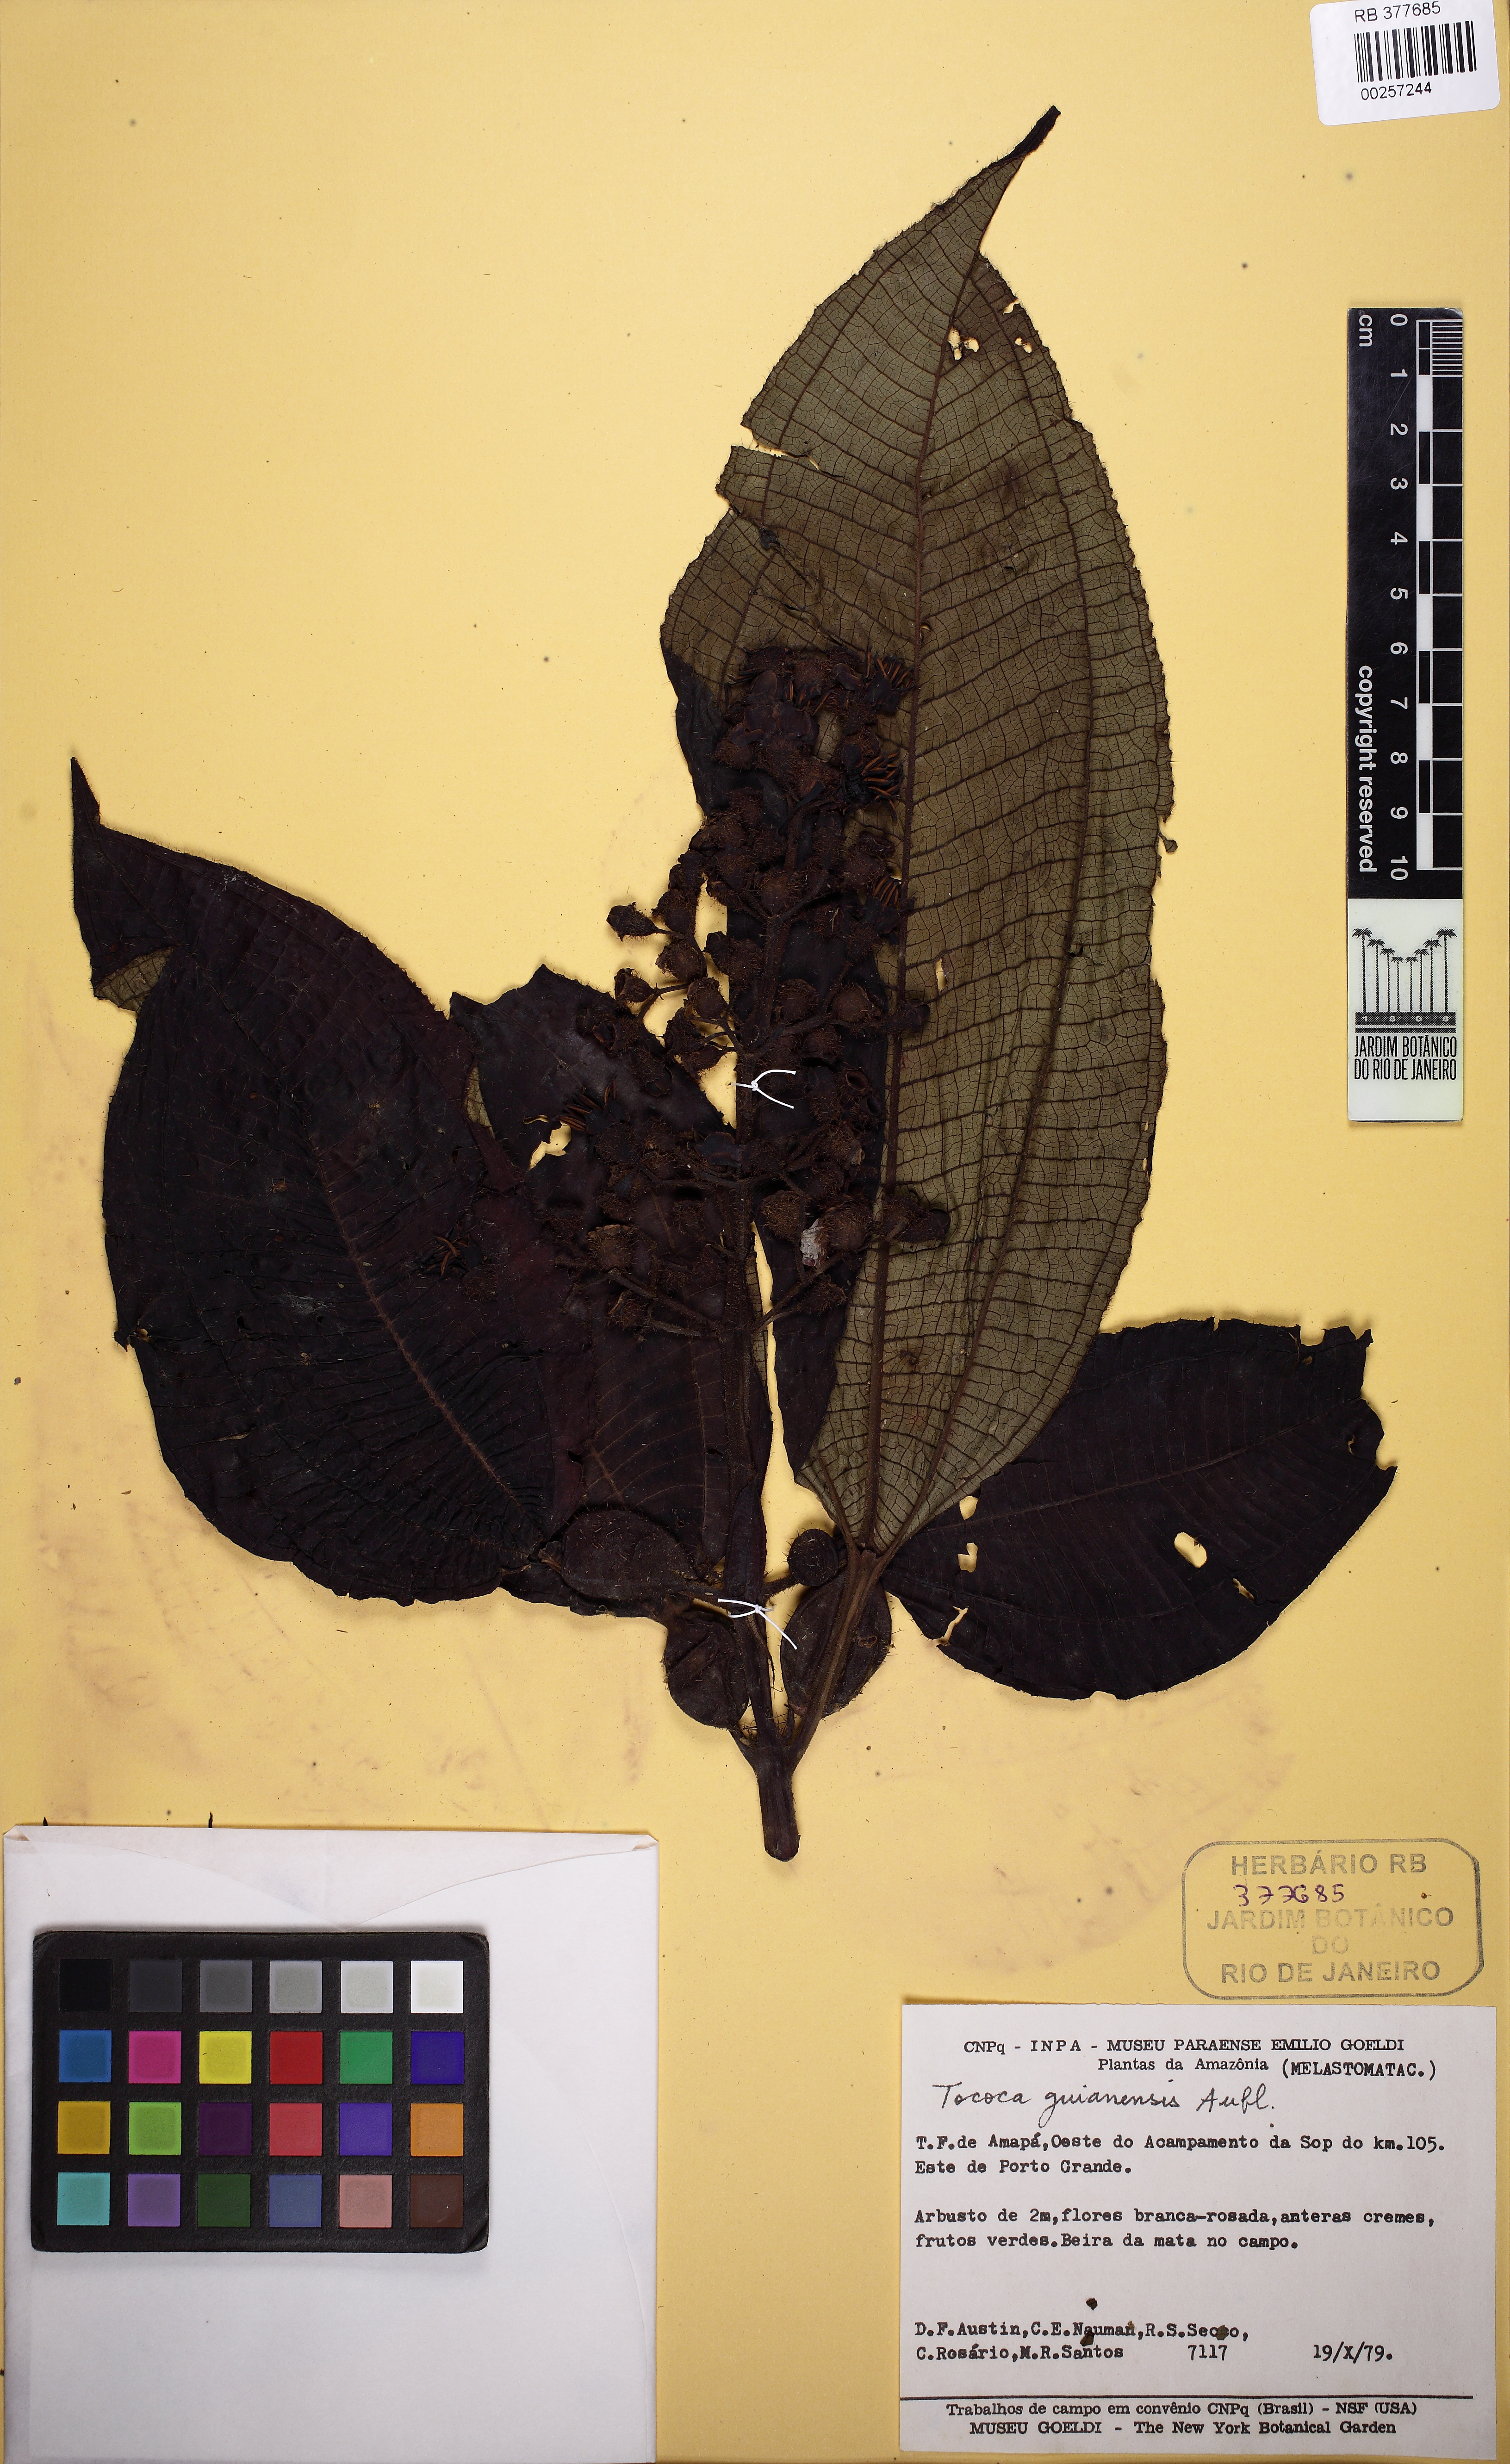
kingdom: Plantae
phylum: Tracheophyta
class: Magnoliopsida
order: Myrtales
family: Melastomataceae
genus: Miconia
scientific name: Miconia tococa
